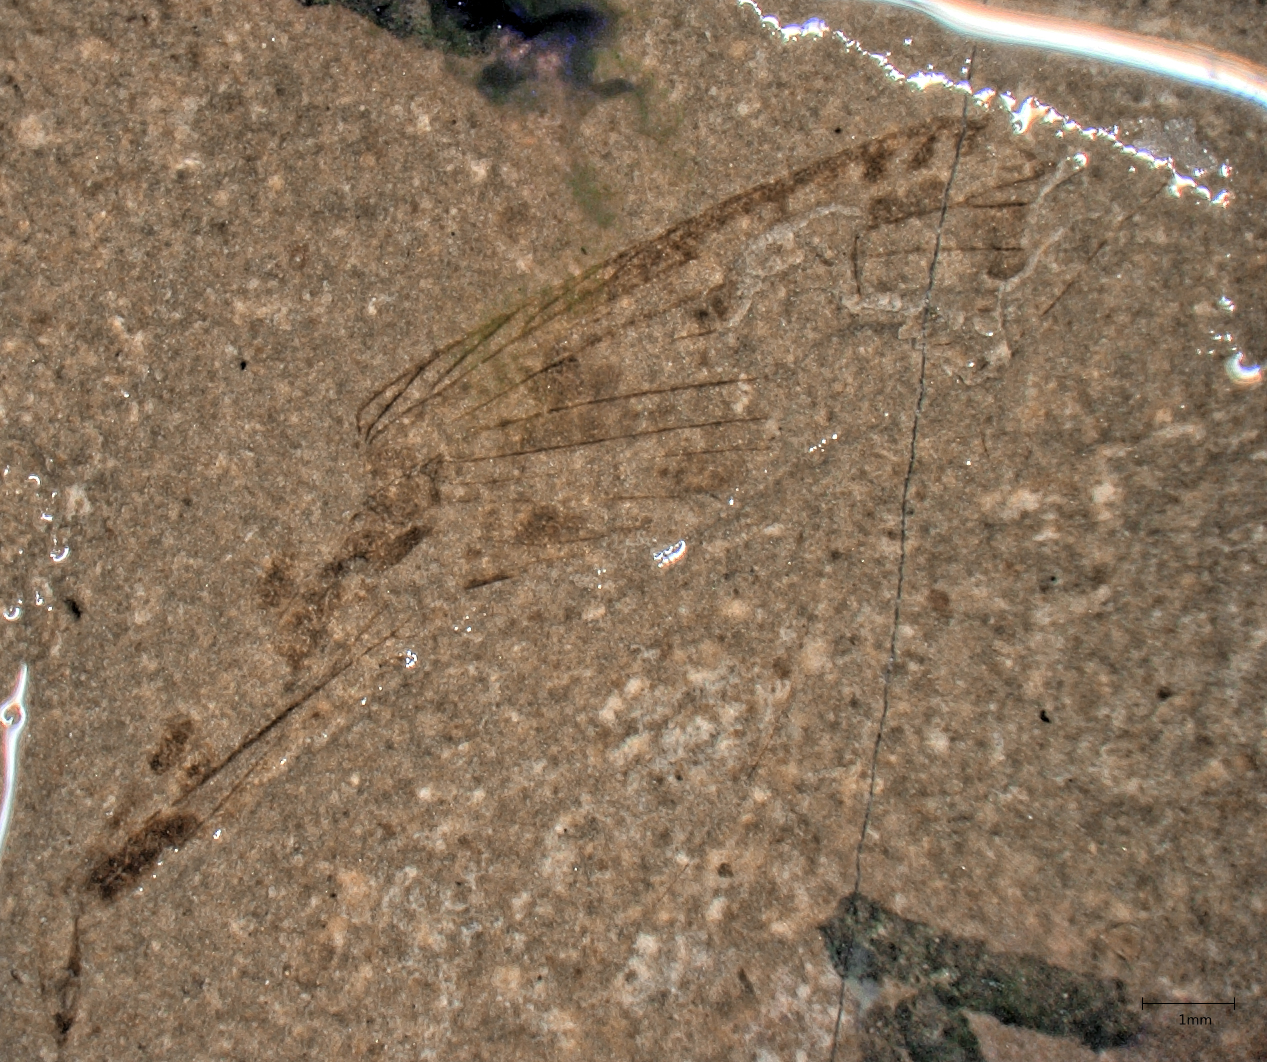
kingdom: Animalia
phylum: Arthropoda
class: Insecta
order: Orthoptera
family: Locustopsidae
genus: Locustopsis
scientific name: Locustopsis
